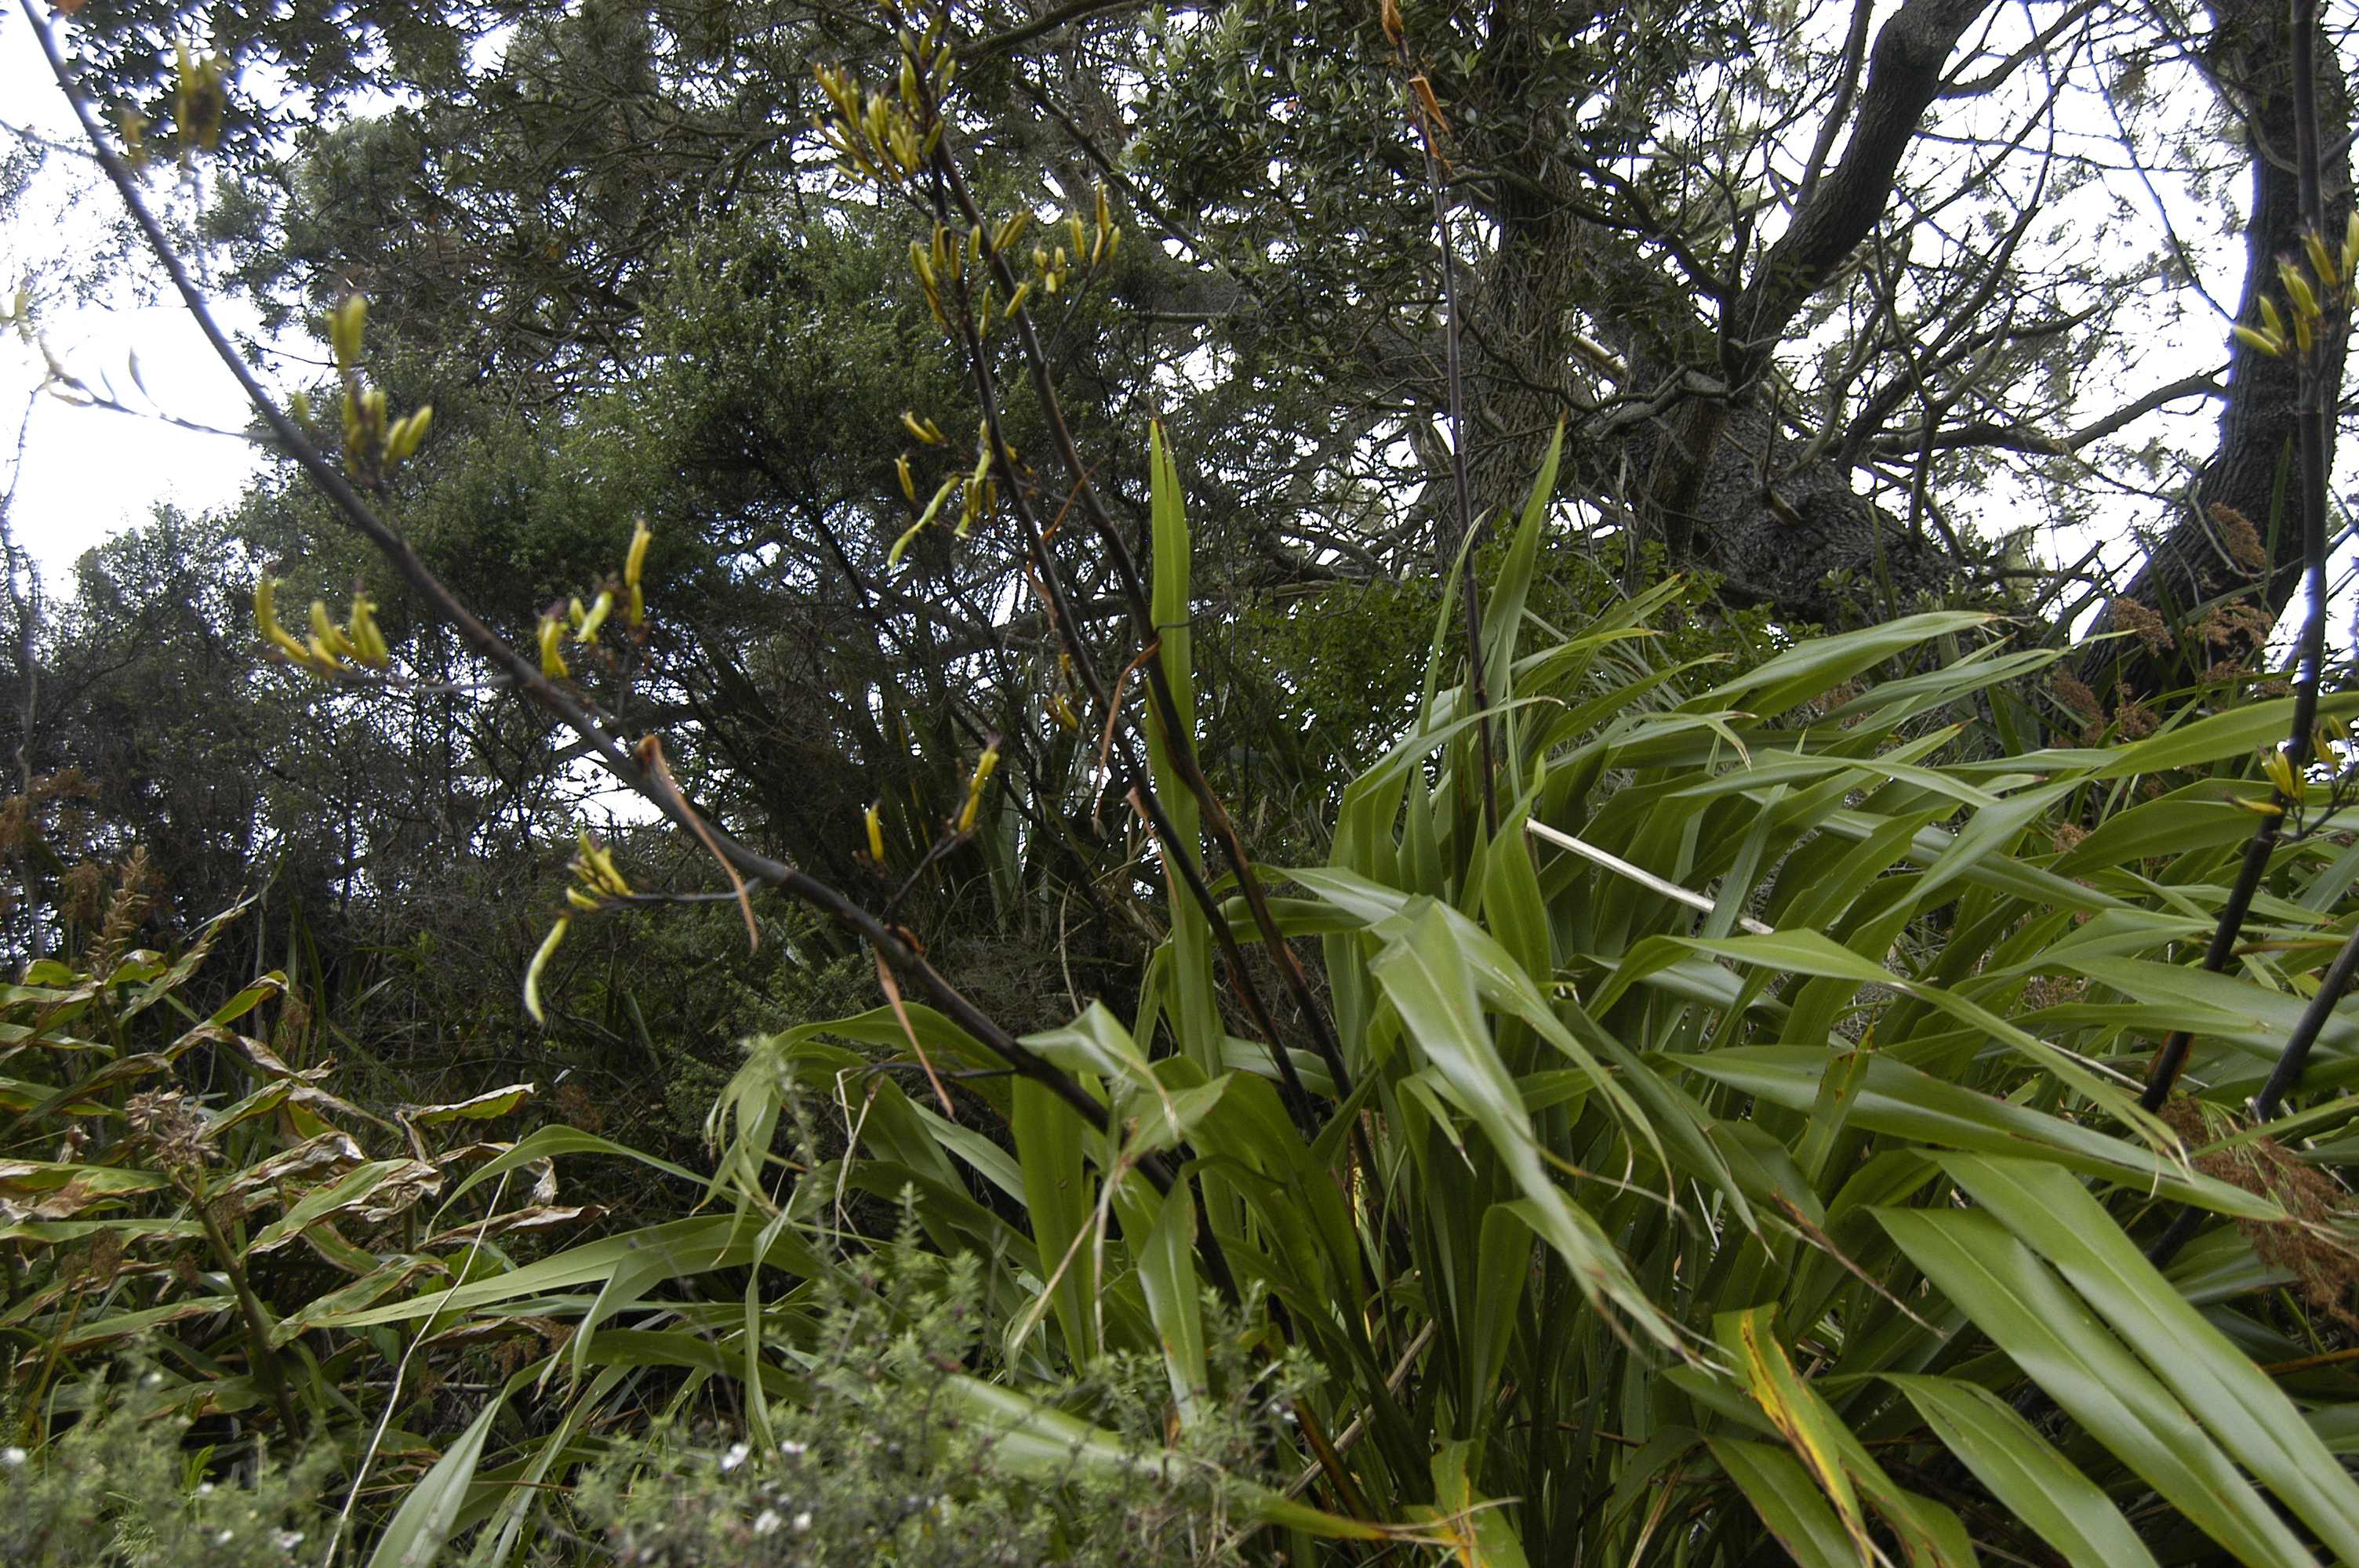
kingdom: Plantae
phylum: Tracheophyta
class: Liliopsida
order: Asparagales
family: Asphodelaceae
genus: Phormium
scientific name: Phormium colensoi
